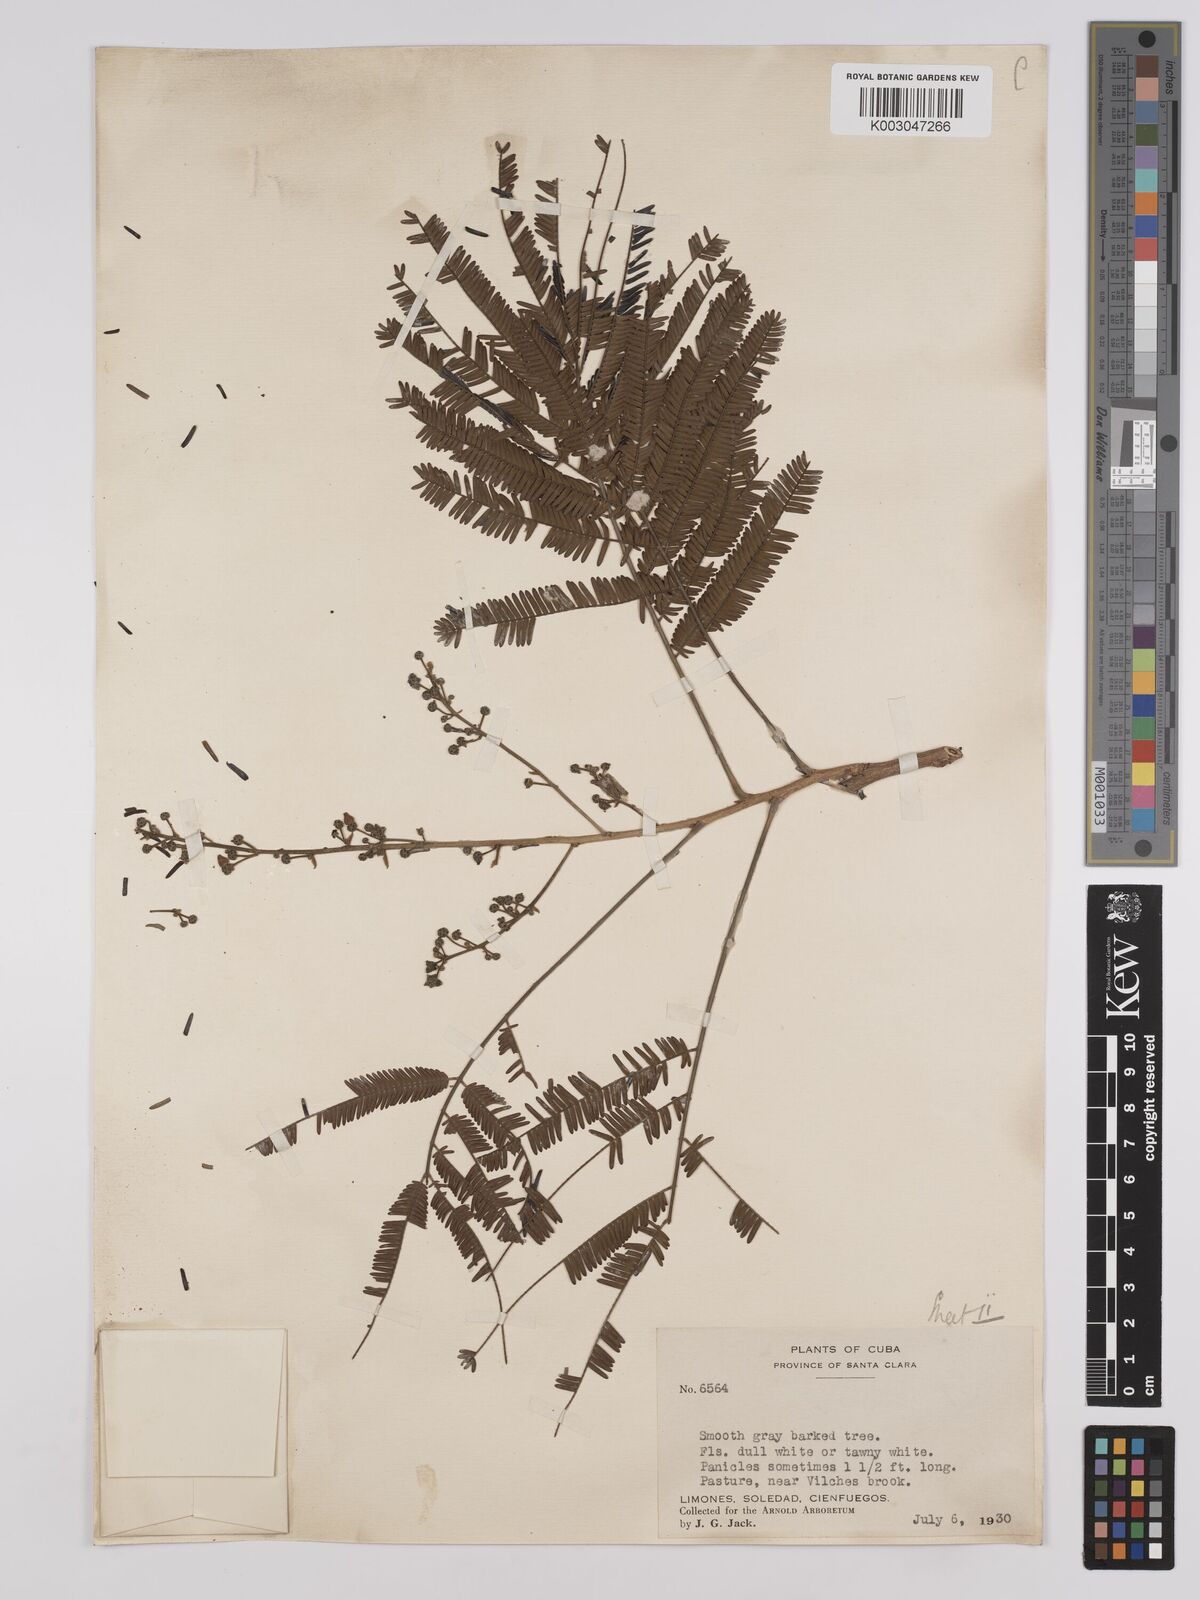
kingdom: Plantae
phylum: Tracheophyta
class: Magnoliopsida
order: Fabales
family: Fabaceae
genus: Albizia
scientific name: Albizia
